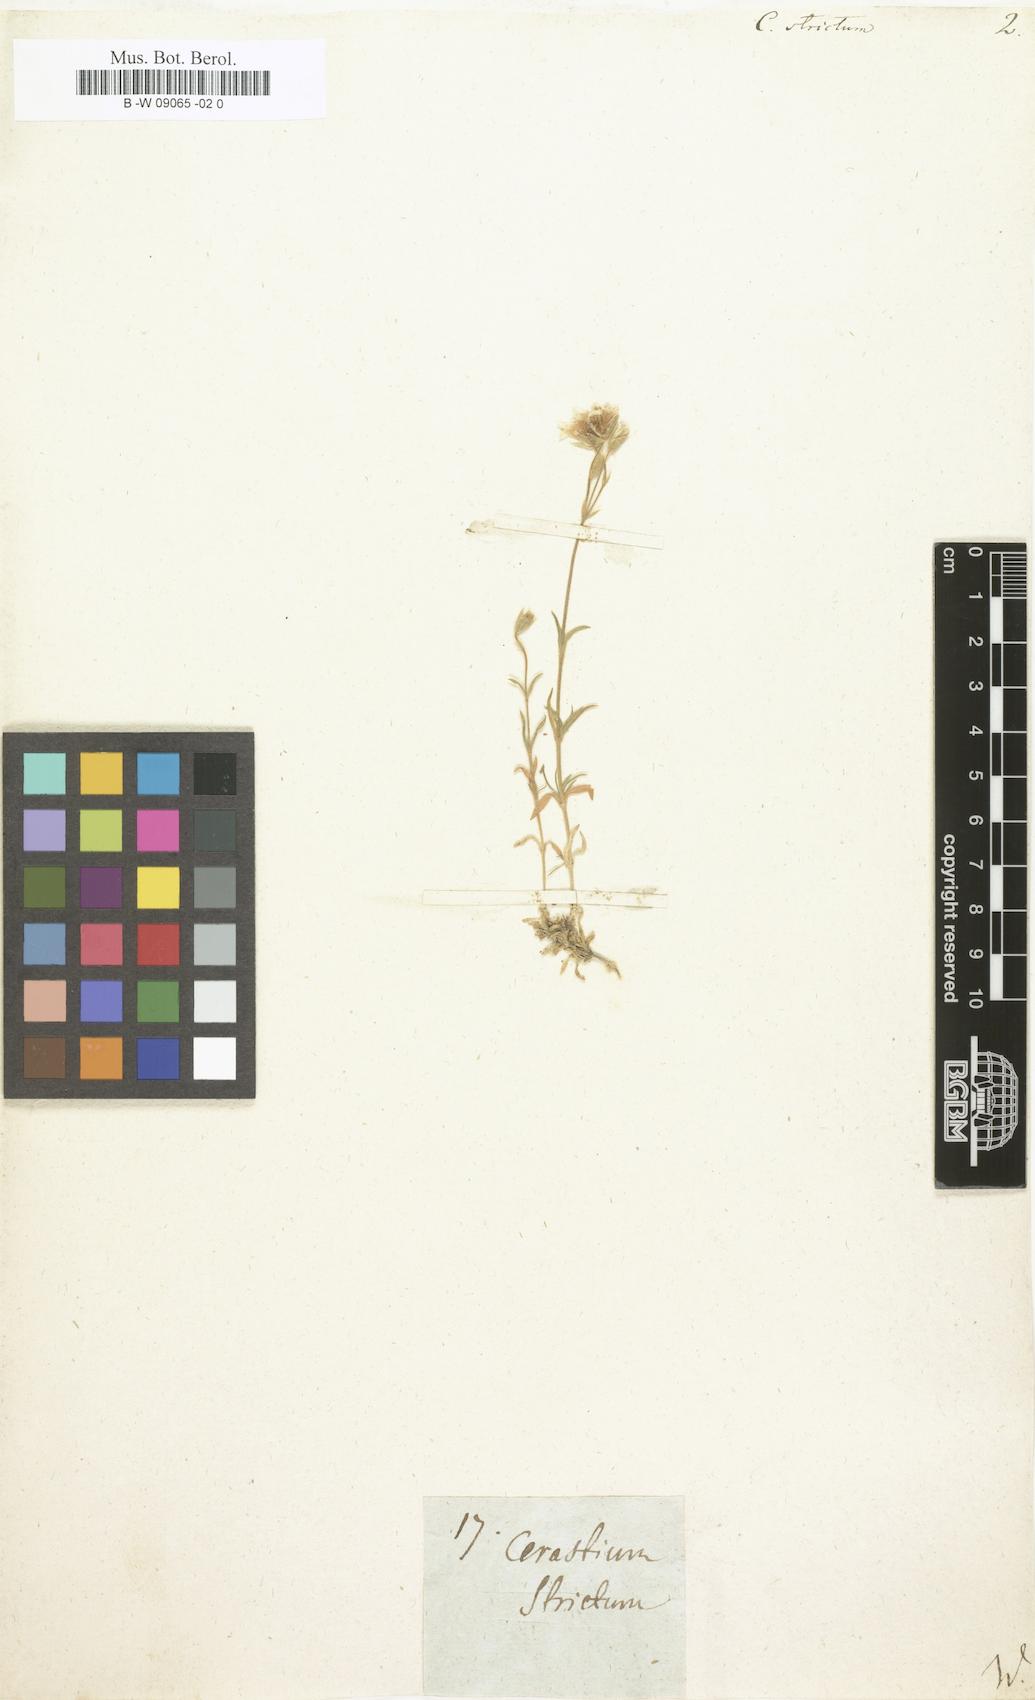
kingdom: Plantae
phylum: Tracheophyta
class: Magnoliopsida
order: Caryophyllales
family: Caryophyllaceae
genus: Cerastium
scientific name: Cerastium elongatum
